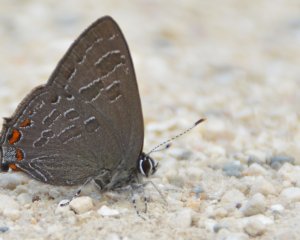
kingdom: Animalia
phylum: Arthropoda
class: Insecta
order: Lepidoptera
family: Lycaenidae
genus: Satyrium
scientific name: Satyrium liparops
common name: Striped Hairstreak
